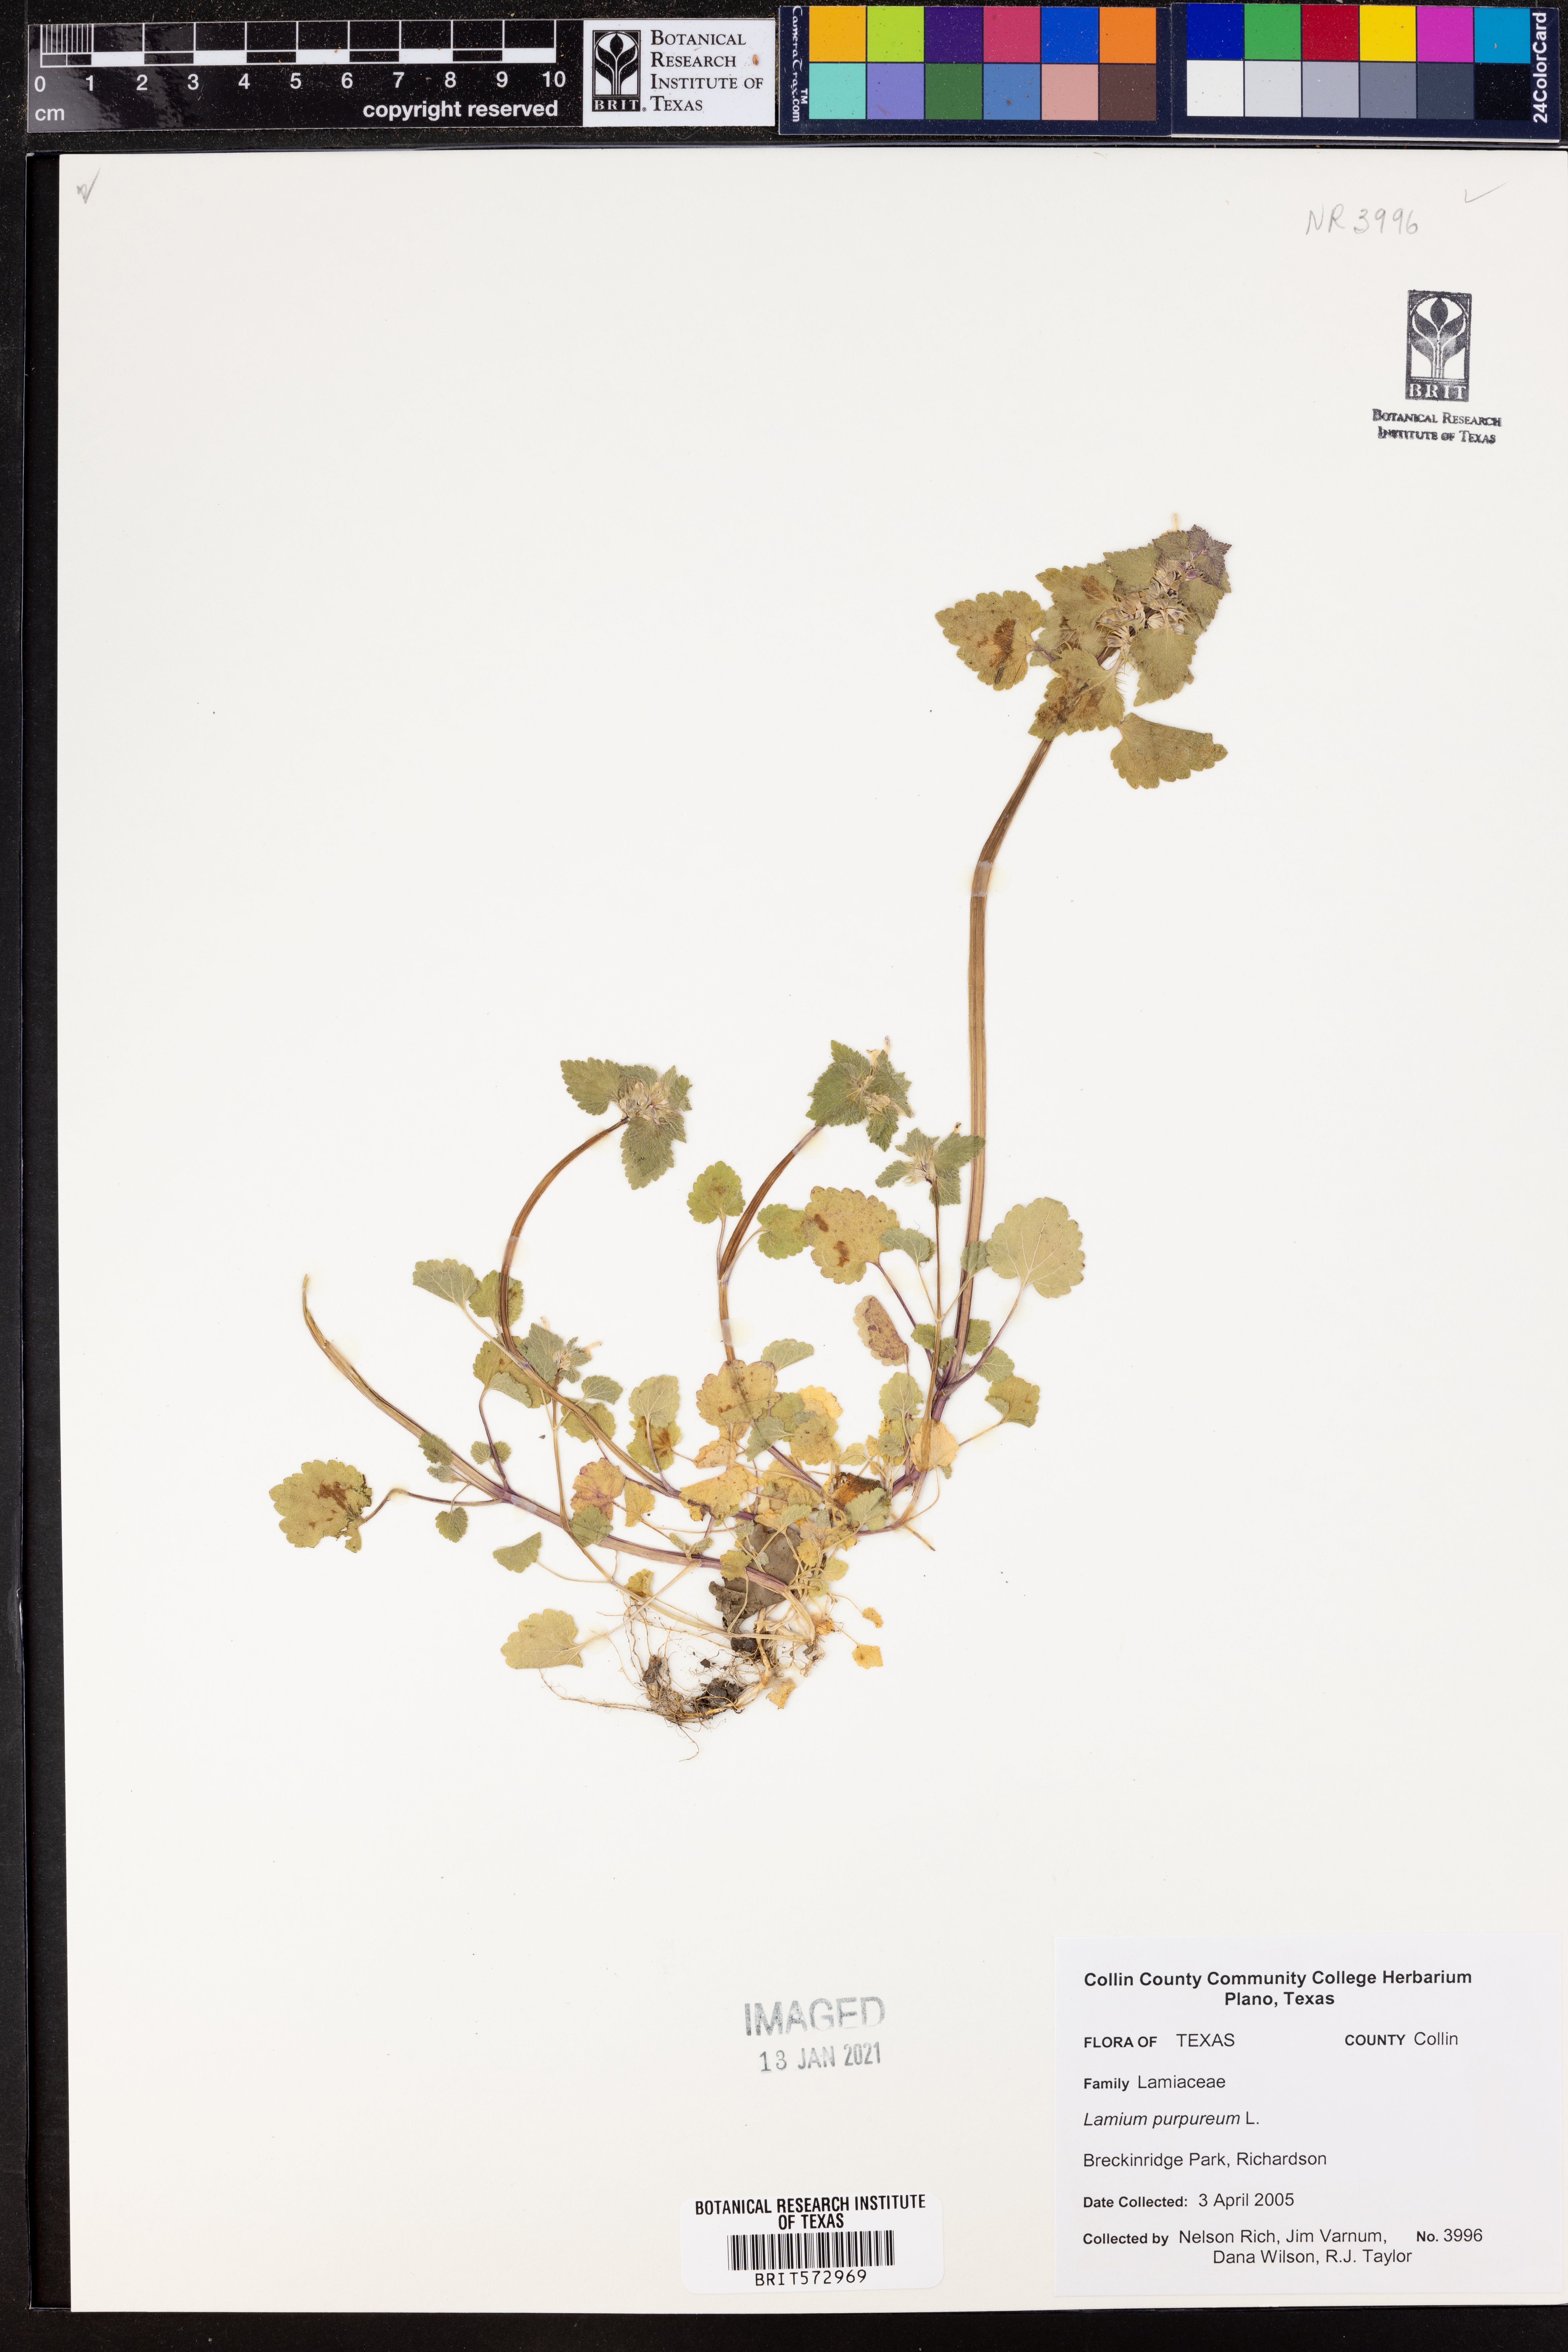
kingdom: Plantae
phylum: Tracheophyta
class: Magnoliopsida
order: Lamiales
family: Lamiaceae
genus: Lamium
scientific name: Lamium purpureum
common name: Red dead-nettle
